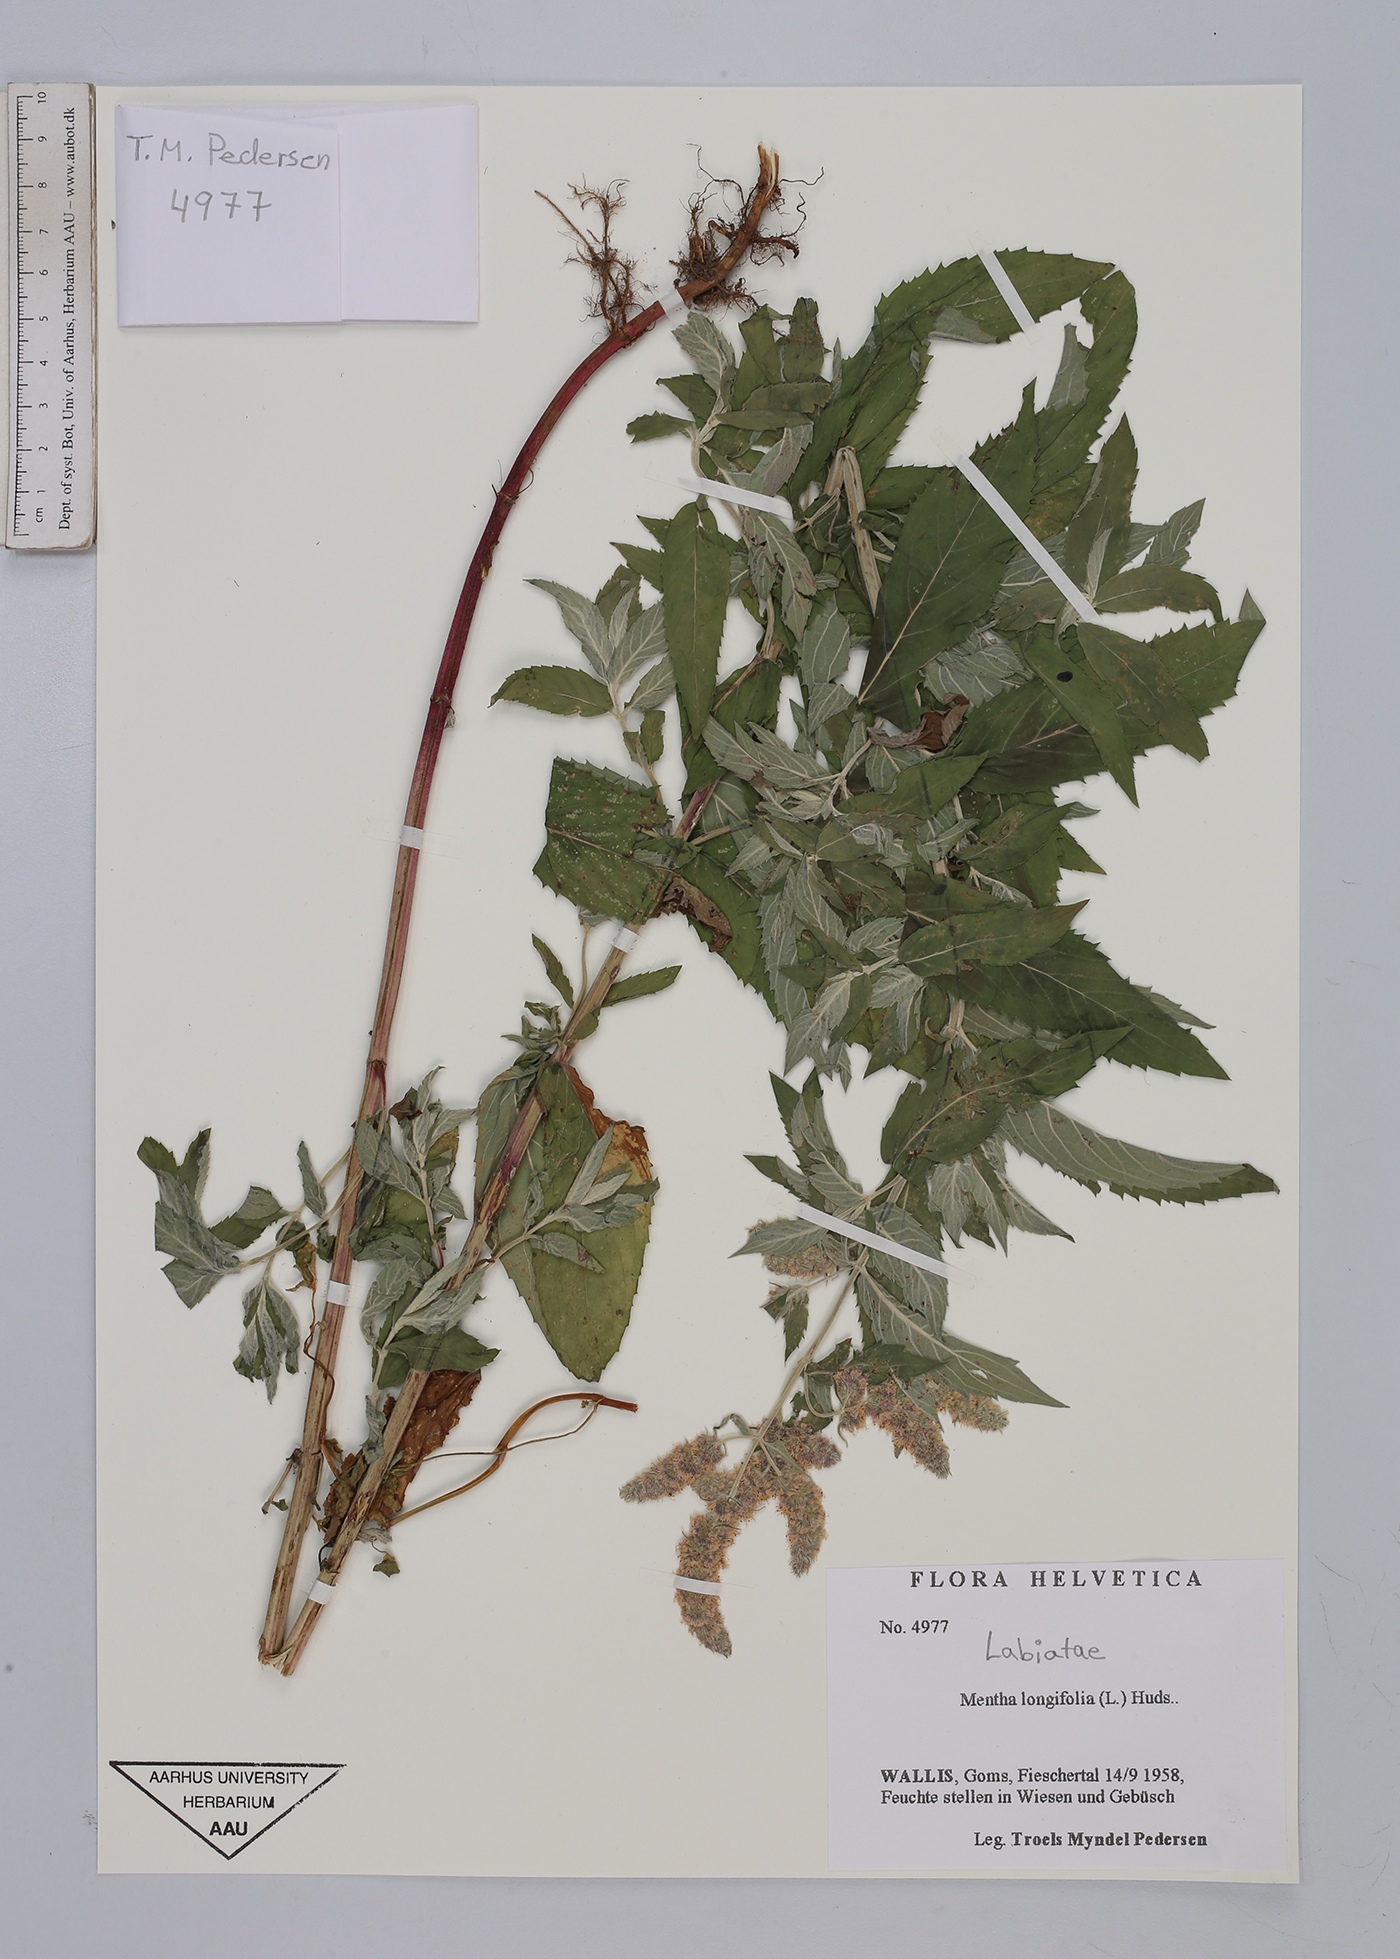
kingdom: Plantae
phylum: Tracheophyta
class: Magnoliopsida
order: Lamiales
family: Lamiaceae
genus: Mentha
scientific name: Mentha longifolia
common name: Horse mint
